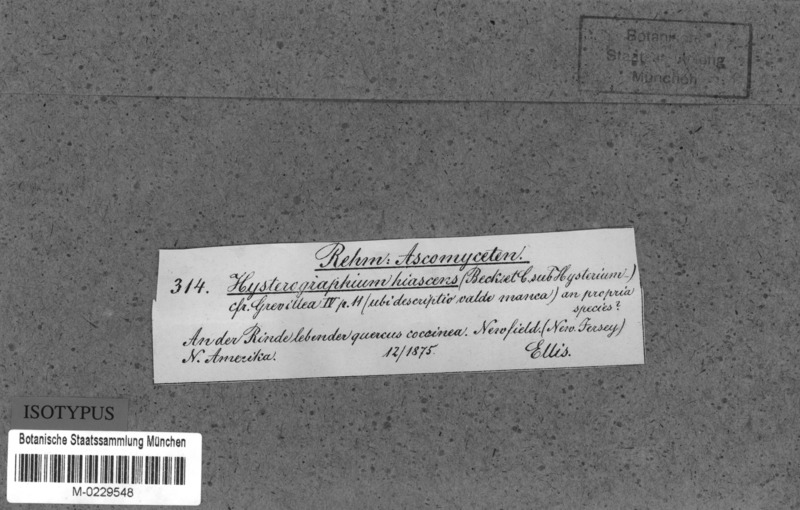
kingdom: Fungi
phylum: Ascomycota
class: Dothideomycetes
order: Hysteriales
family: Hysteriaceae
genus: Gloniopsis
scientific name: Gloniopsis subrugosa
